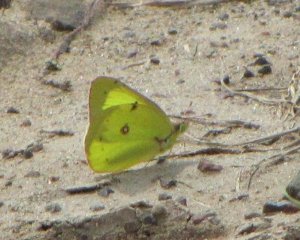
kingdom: Animalia
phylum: Arthropoda
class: Insecta
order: Lepidoptera
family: Pieridae
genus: Colias
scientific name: Colias philodice
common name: Clouded Sulphur
